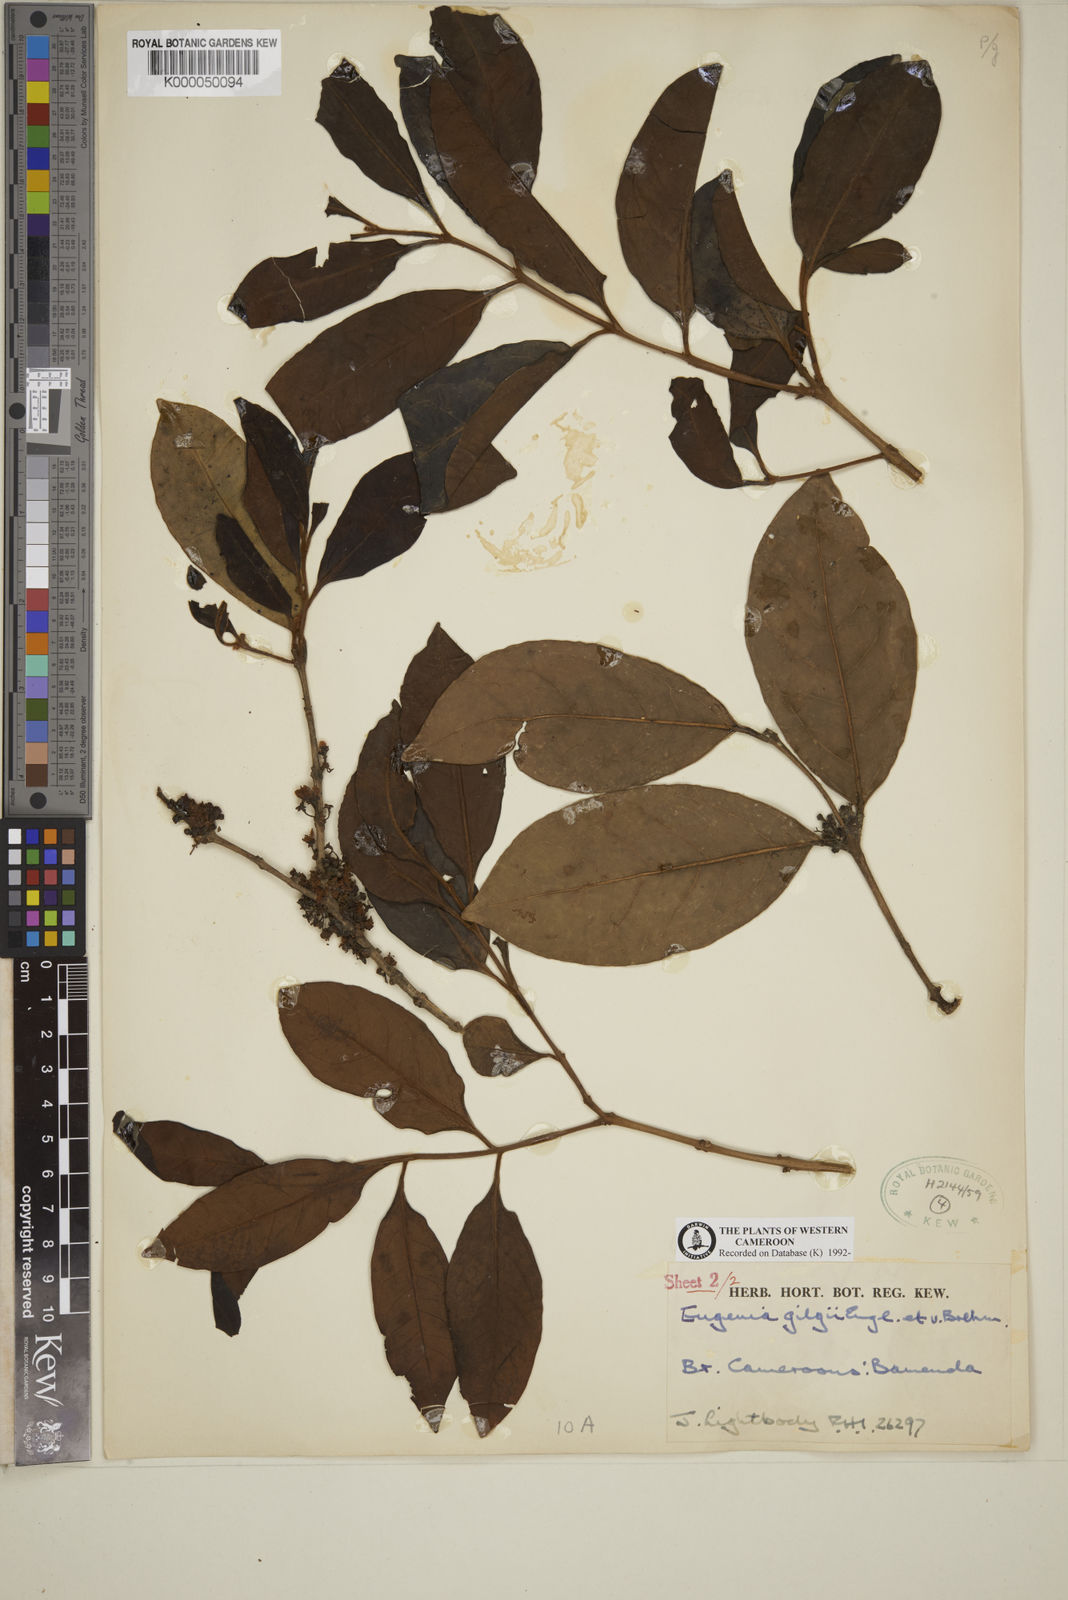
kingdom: Plantae
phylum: Tracheophyta
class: Magnoliopsida
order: Myrtales
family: Myrtaceae
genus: Eugenia
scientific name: Eugenia gilgii
